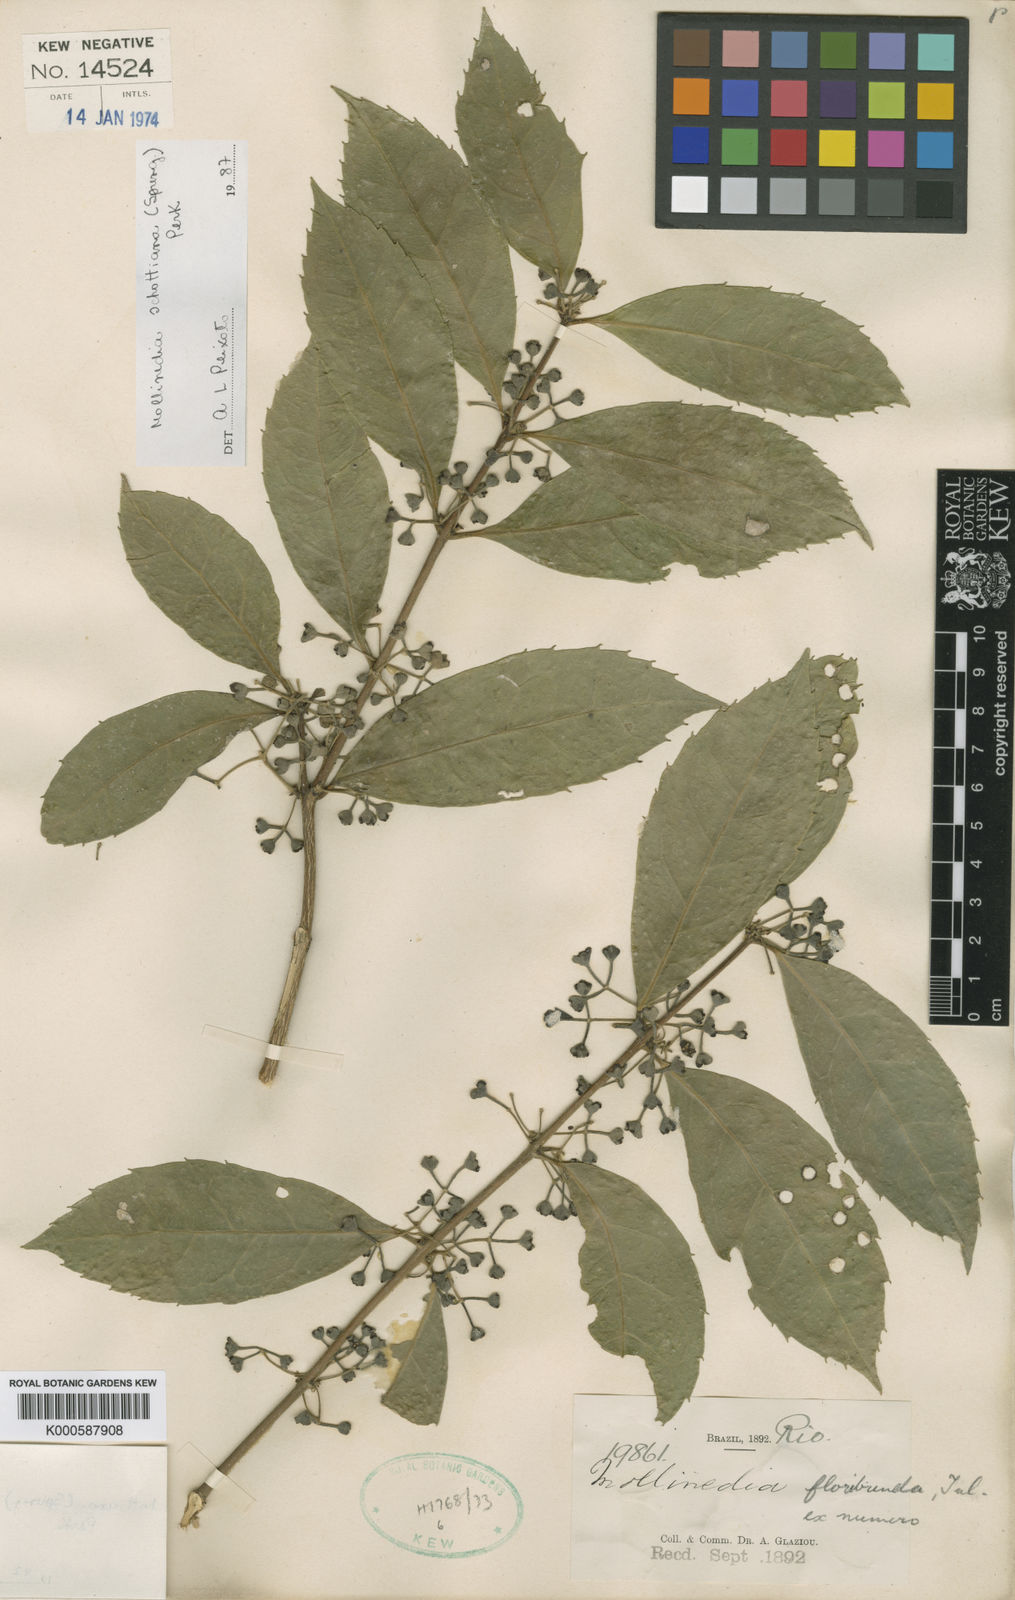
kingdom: Plantae
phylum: Tracheophyta
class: Magnoliopsida
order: Laurales
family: Monimiaceae
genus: Mollinedia
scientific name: Mollinedia floribunda
